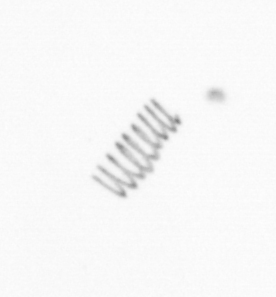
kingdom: Chromista
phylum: Ochrophyta
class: Bacillariophyceae
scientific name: Bacillariophyceae
